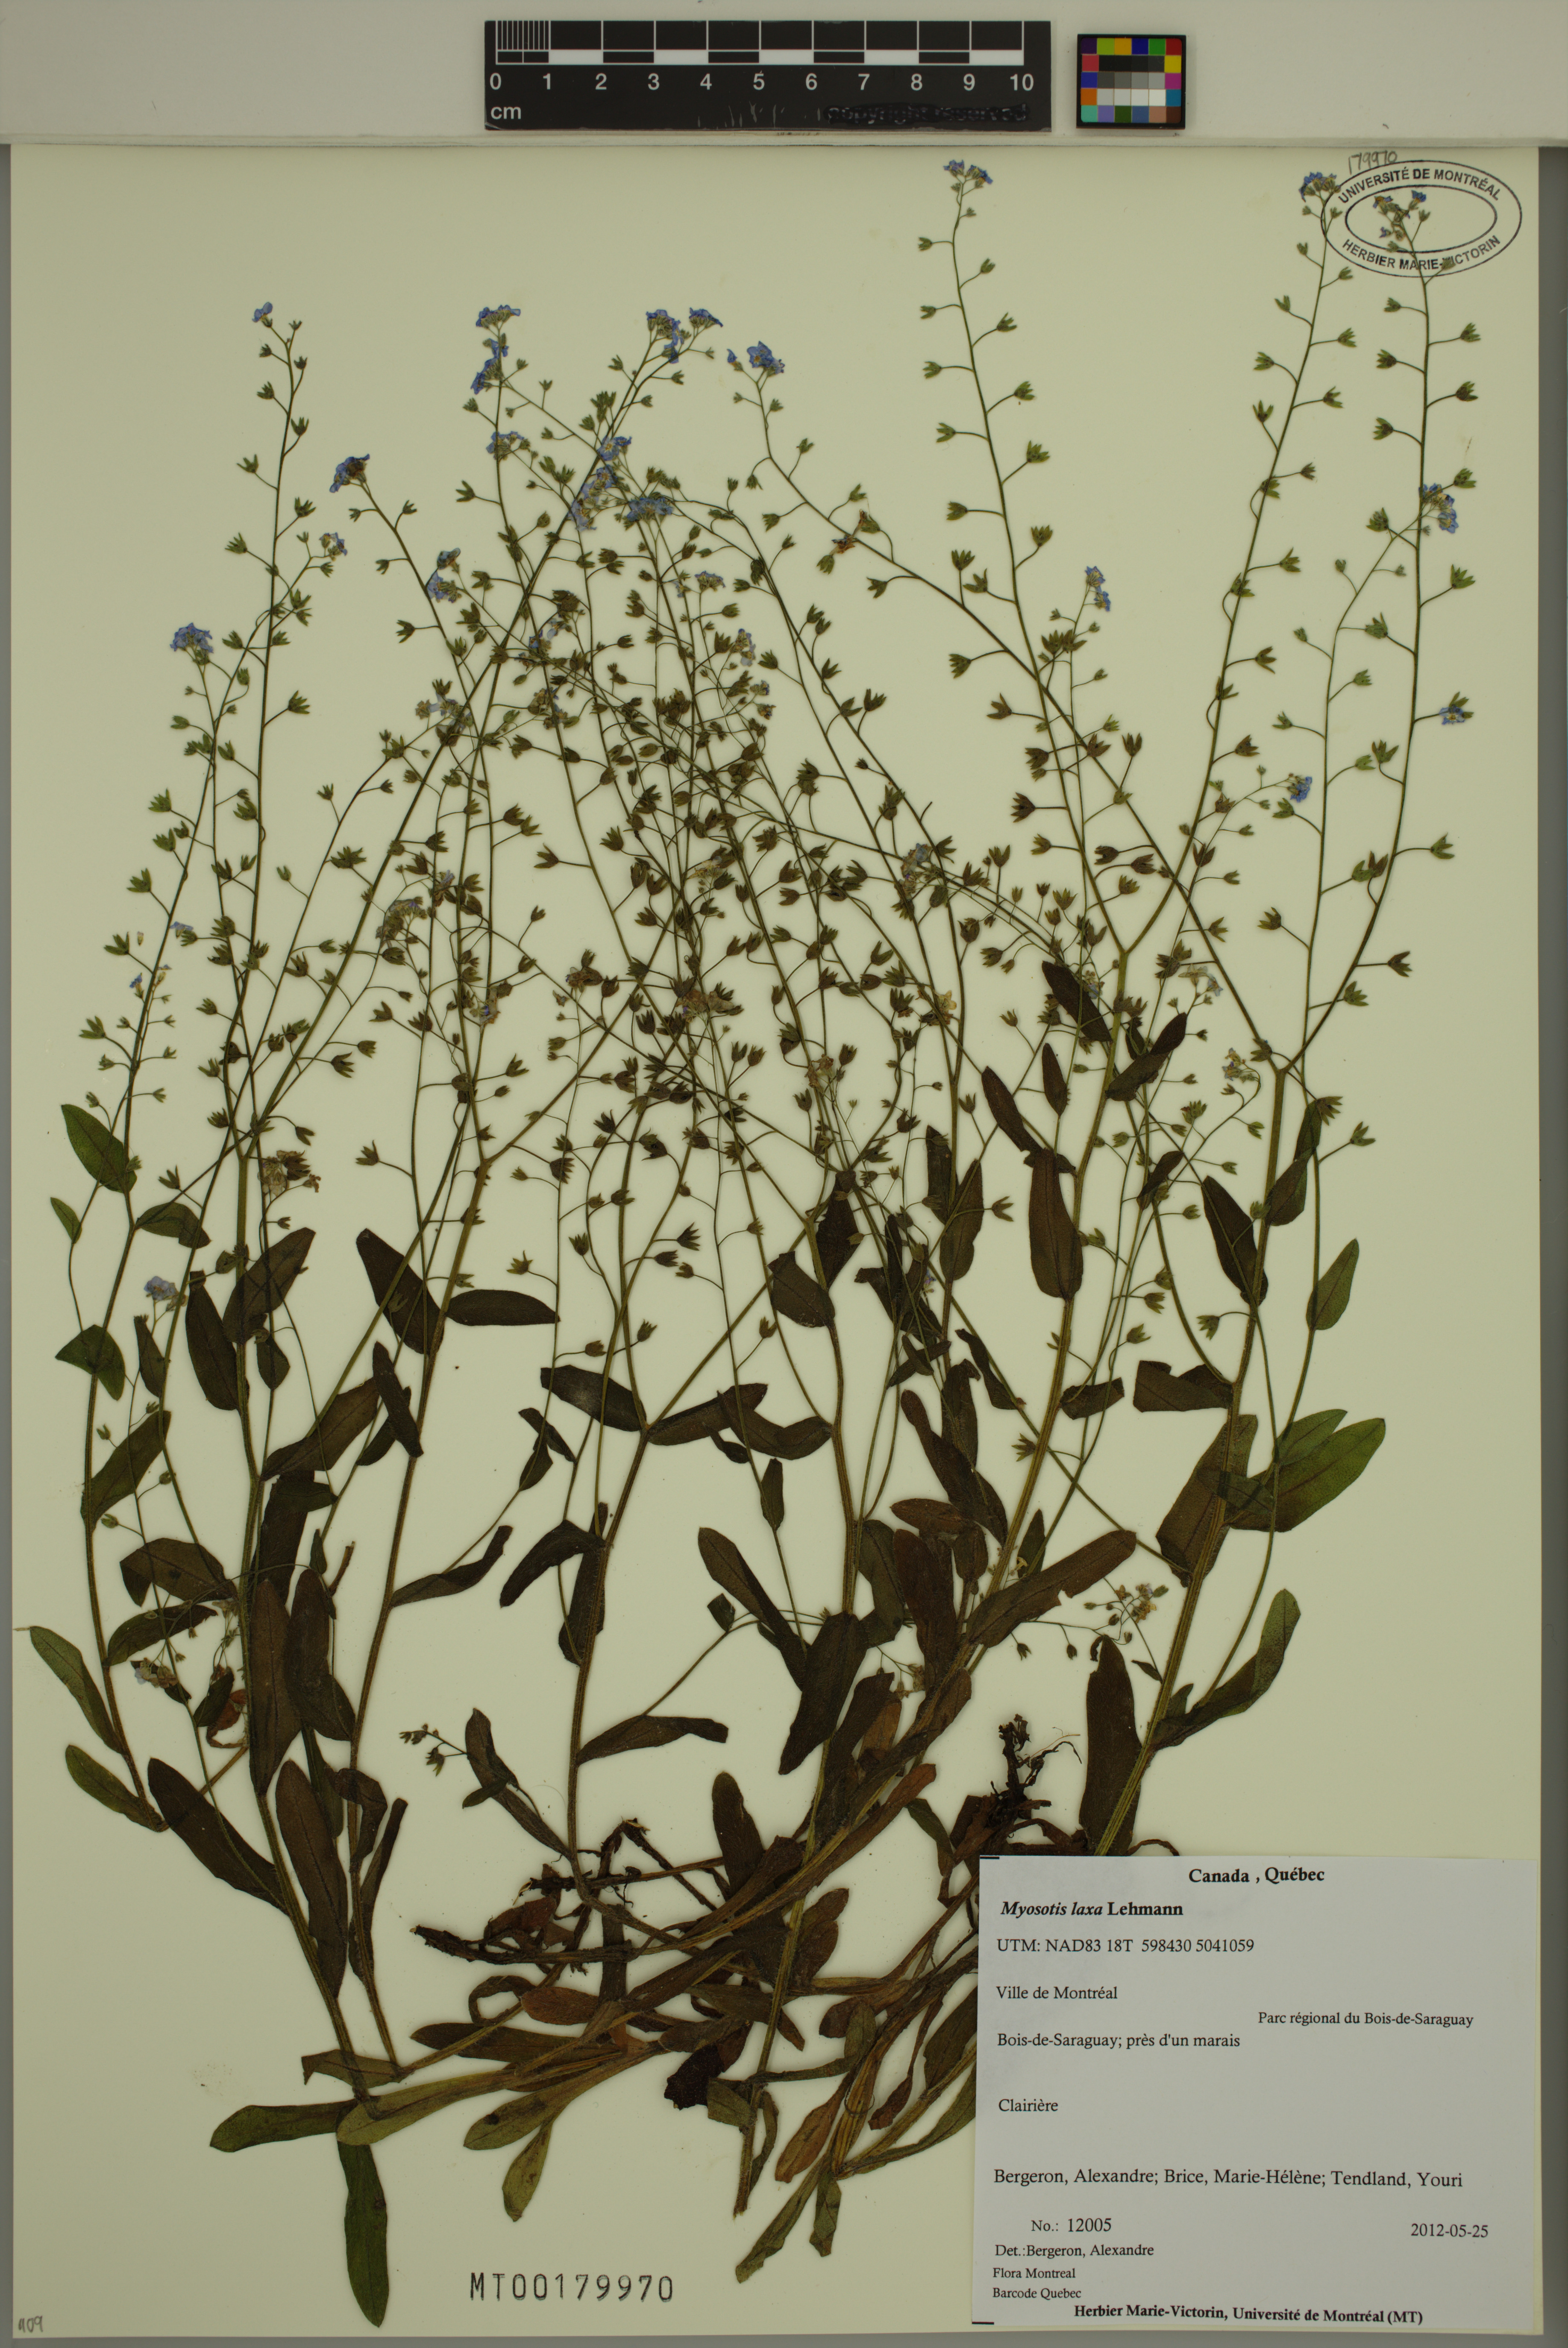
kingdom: Plantae
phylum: Tracheophyta
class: Magnoliopsida
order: Boraginales
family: Boraginaceae
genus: Myosotis
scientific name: Myosotis laxa
